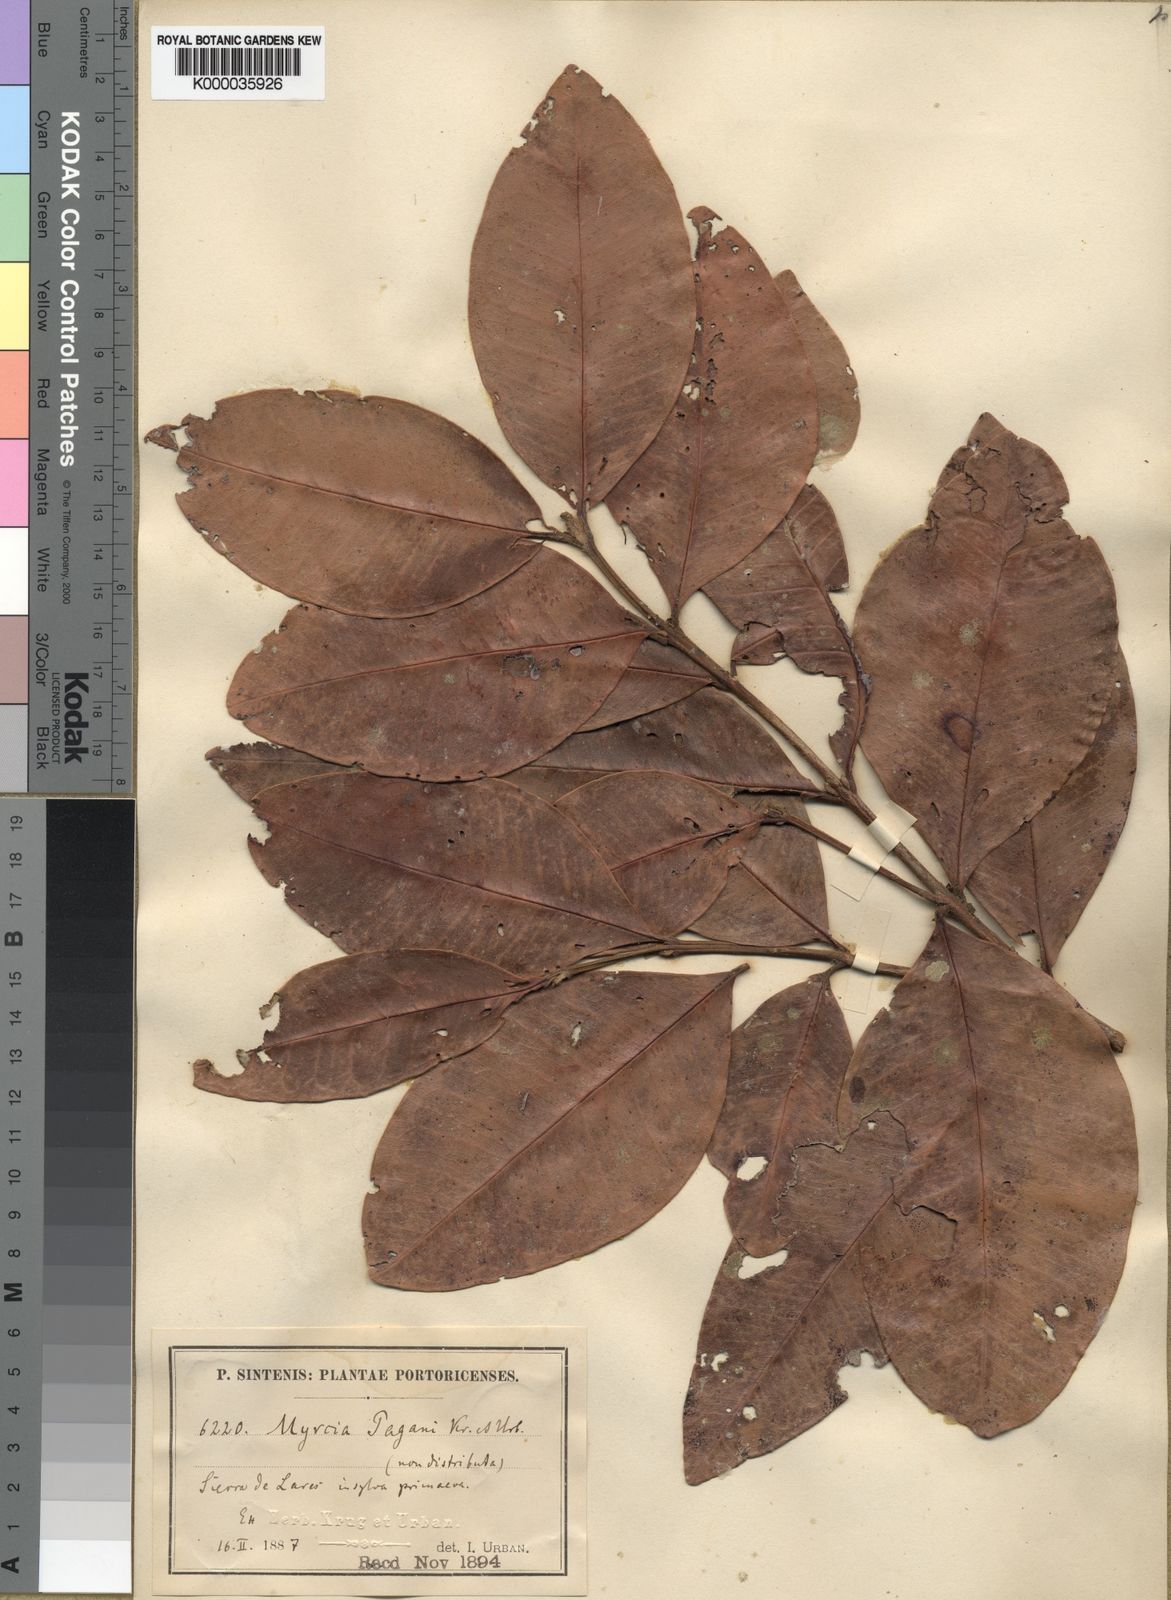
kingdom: Plantae
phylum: Tracheophyta
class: Magnoliopsida
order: Myrtales
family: Myrtaceae
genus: Pimenta
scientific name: Pimenta paganii
